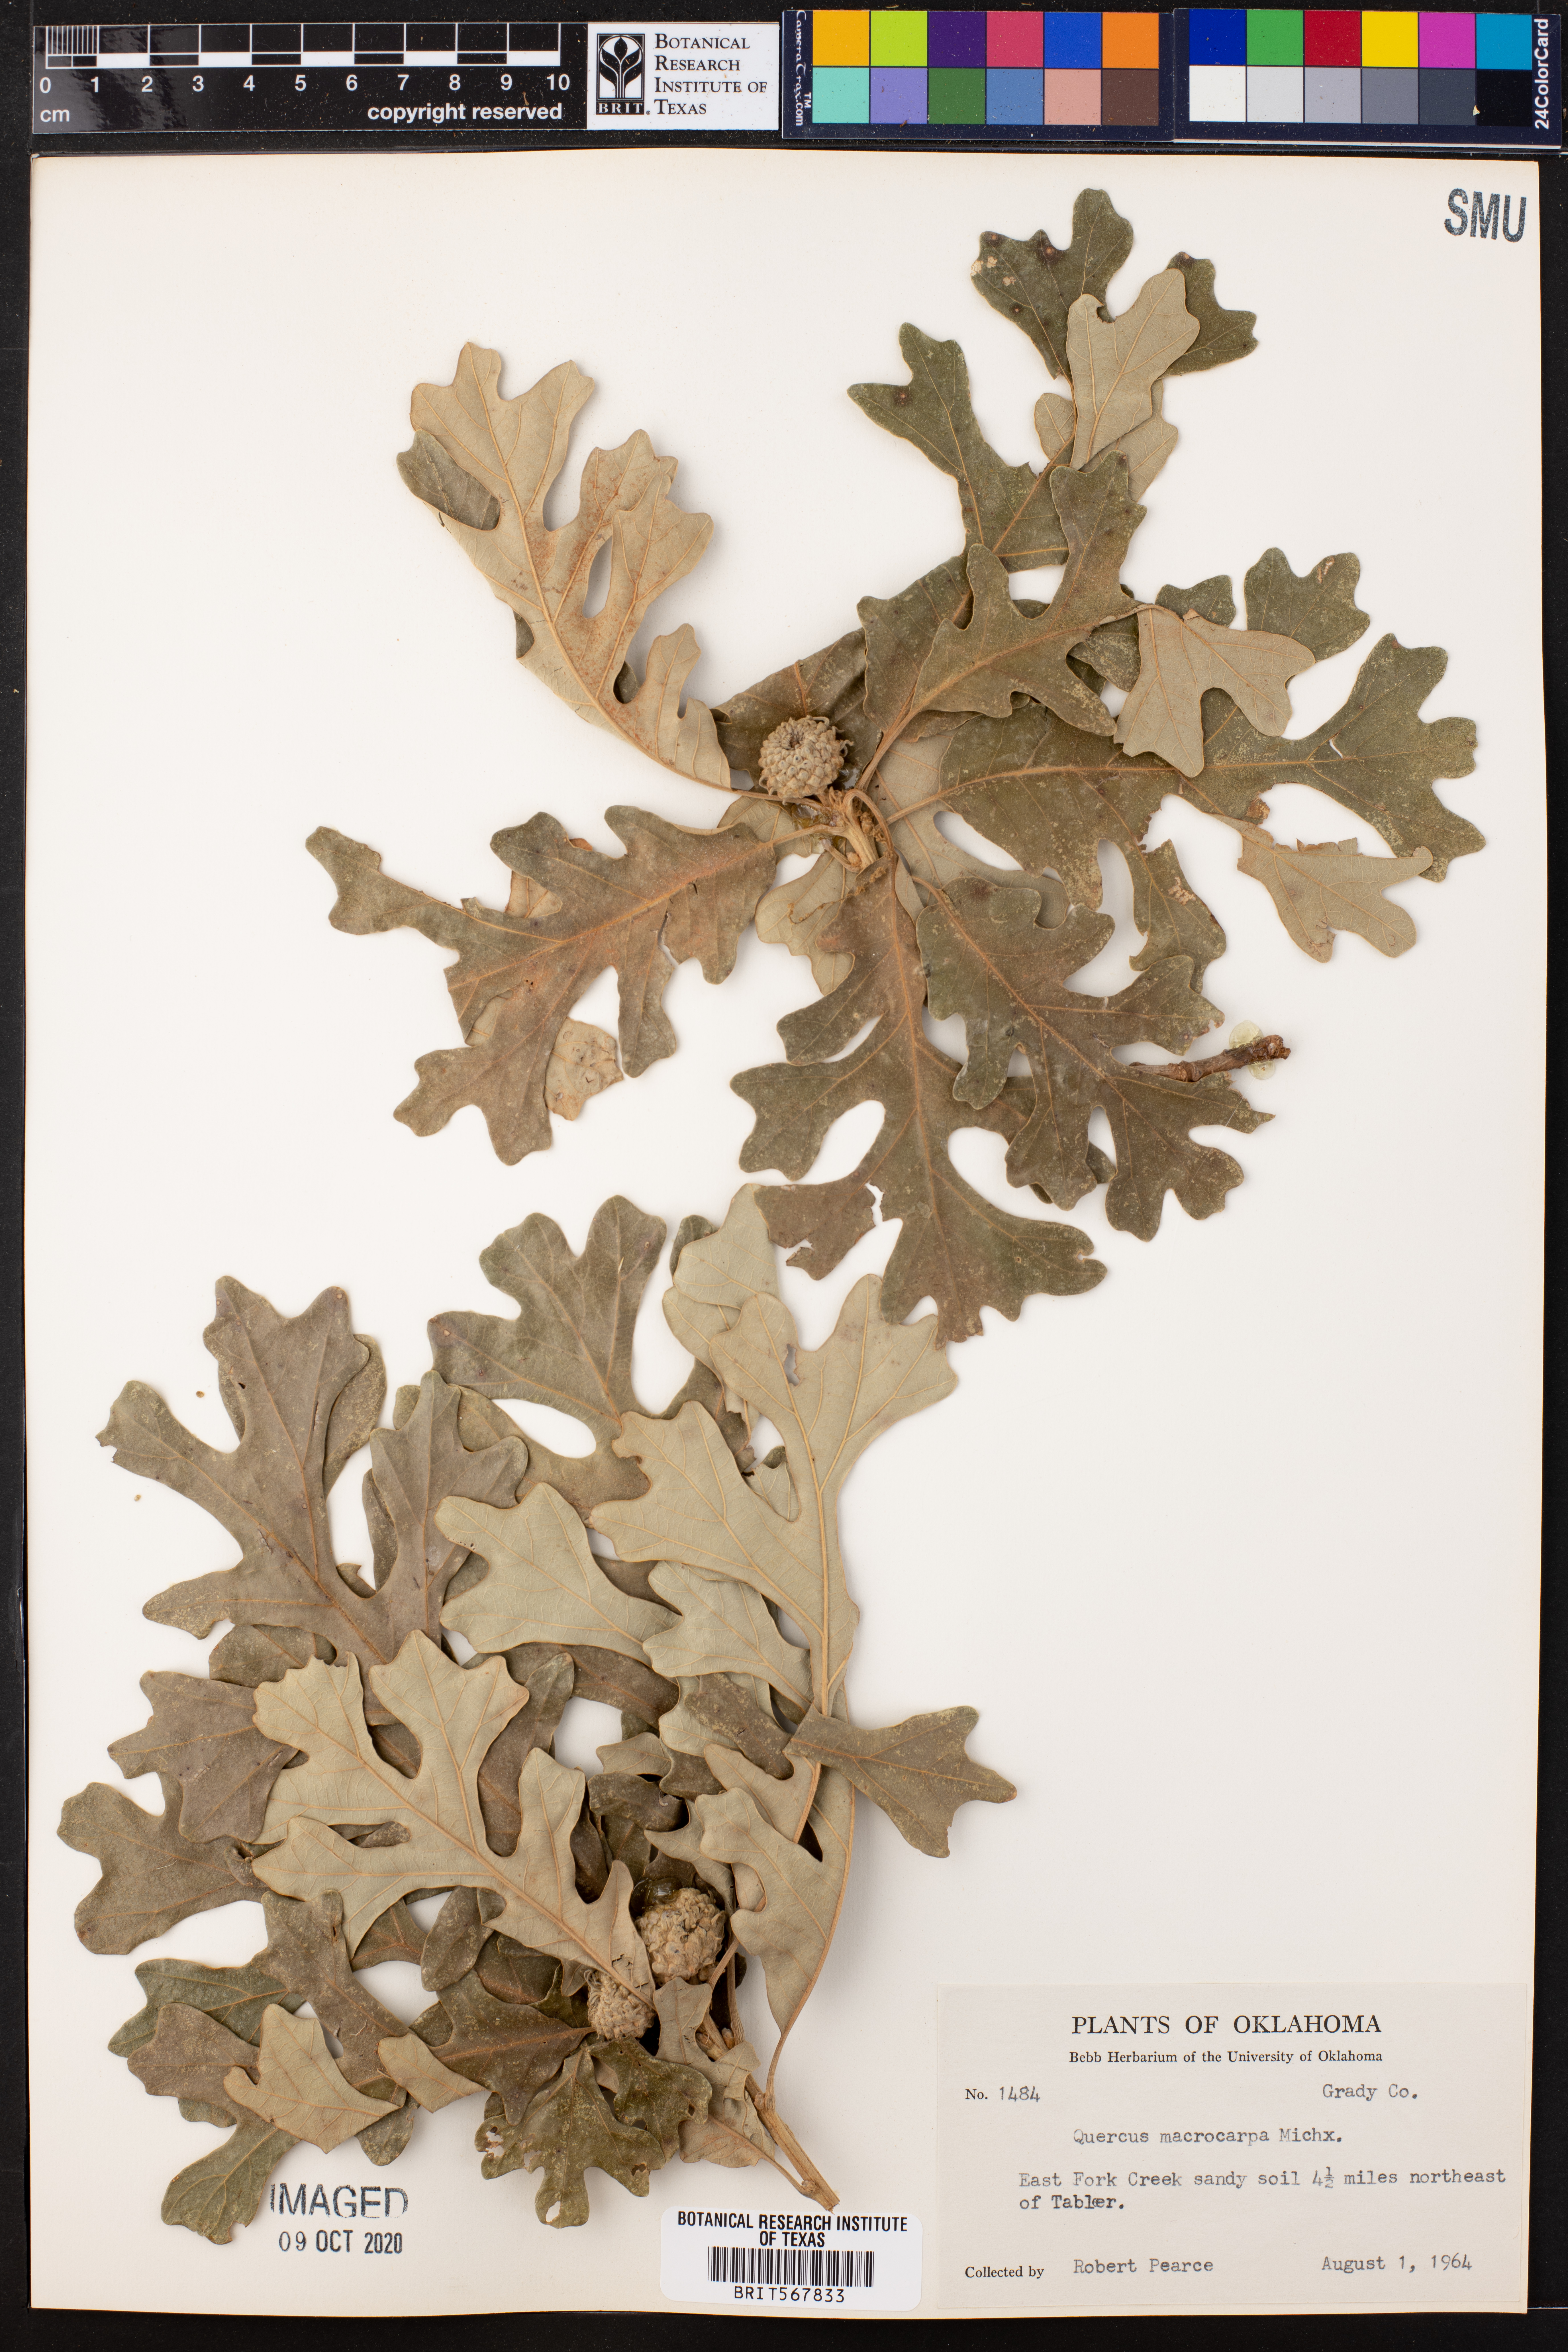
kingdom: Plantae
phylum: Tracheophyta
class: Magnoliopsida
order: Fagales
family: Fagaceae
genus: Quercus
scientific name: Quercus macrocarpa
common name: Bur oak
